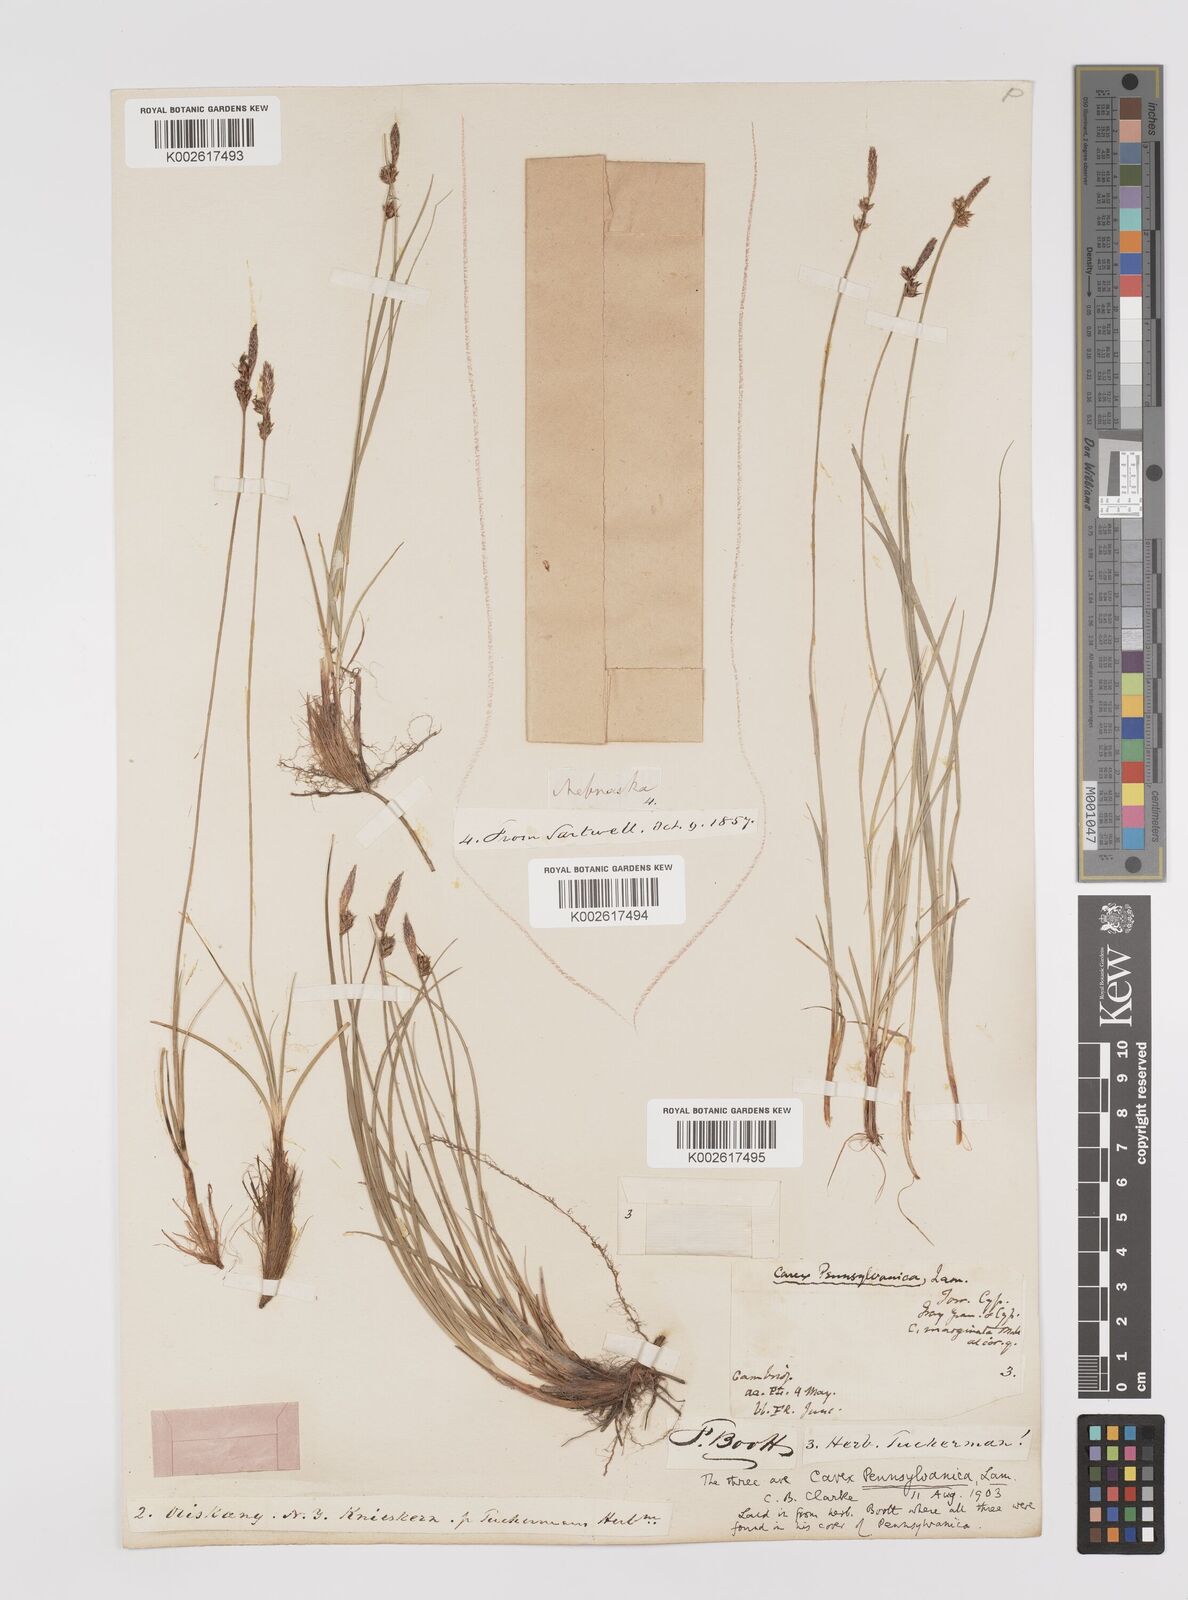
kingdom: Plantae
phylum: Tracheophyta
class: Liliopsida
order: Poales
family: Cyperaceae
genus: Carex
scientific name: Carex pensylvanica
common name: Common oak sedge
